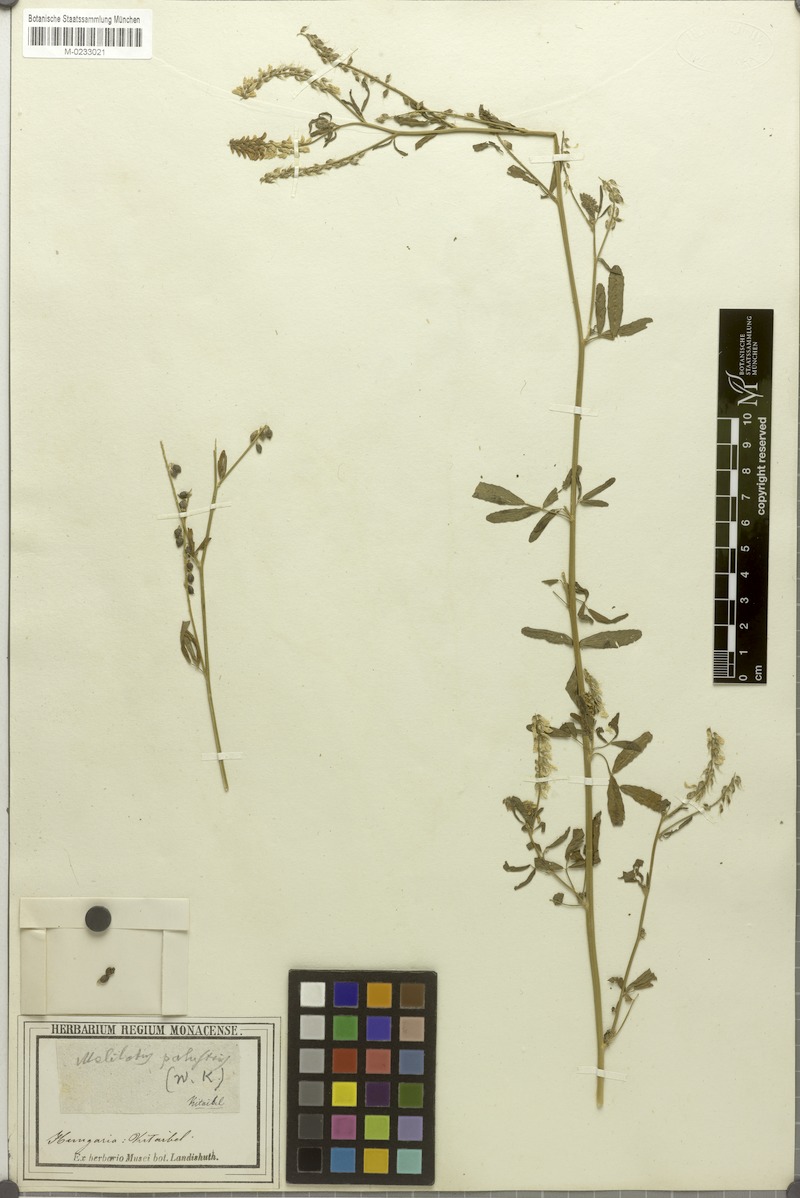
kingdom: Plantae
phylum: Tracheophyta
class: Magnoliopsida
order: Fabales
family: Fabaceae
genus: Melilotus
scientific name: Melilotus officinalis
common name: Sweetclover
